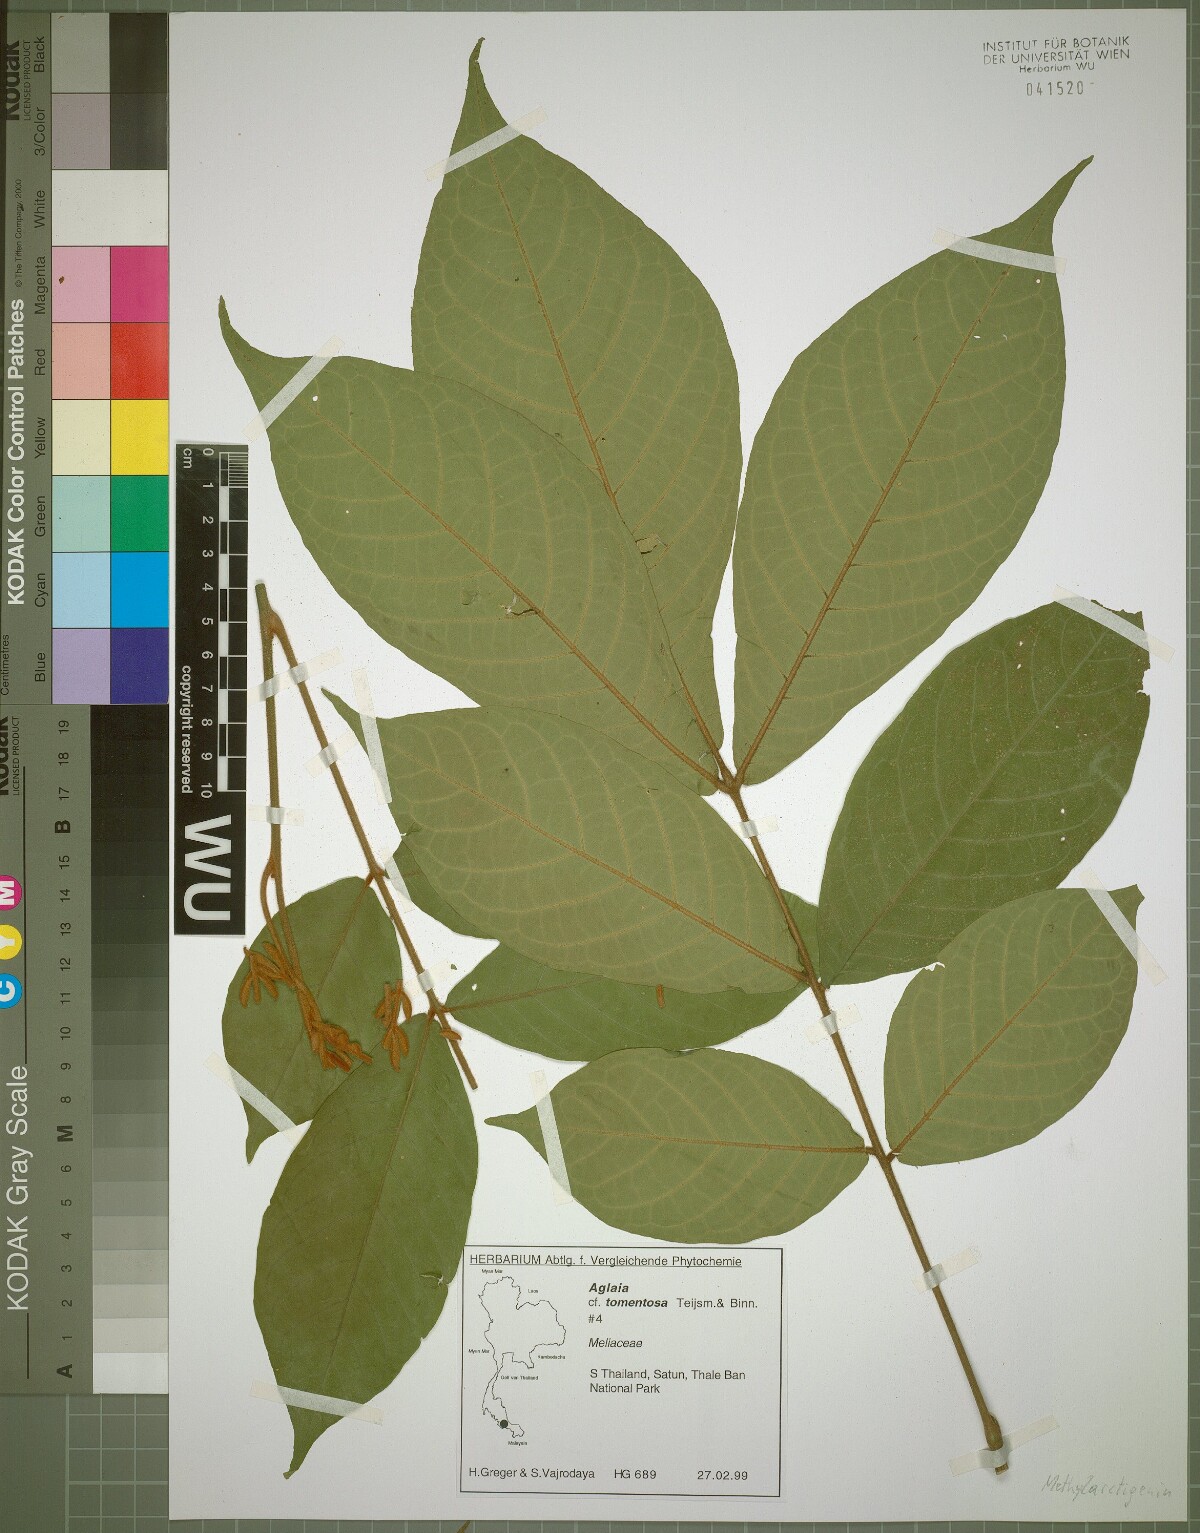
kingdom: Plantae
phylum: Tracheophyta
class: Magnoliopsida
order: Sapindales
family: Meliaceae
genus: Aglaia
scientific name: Aglaia tomentosa
